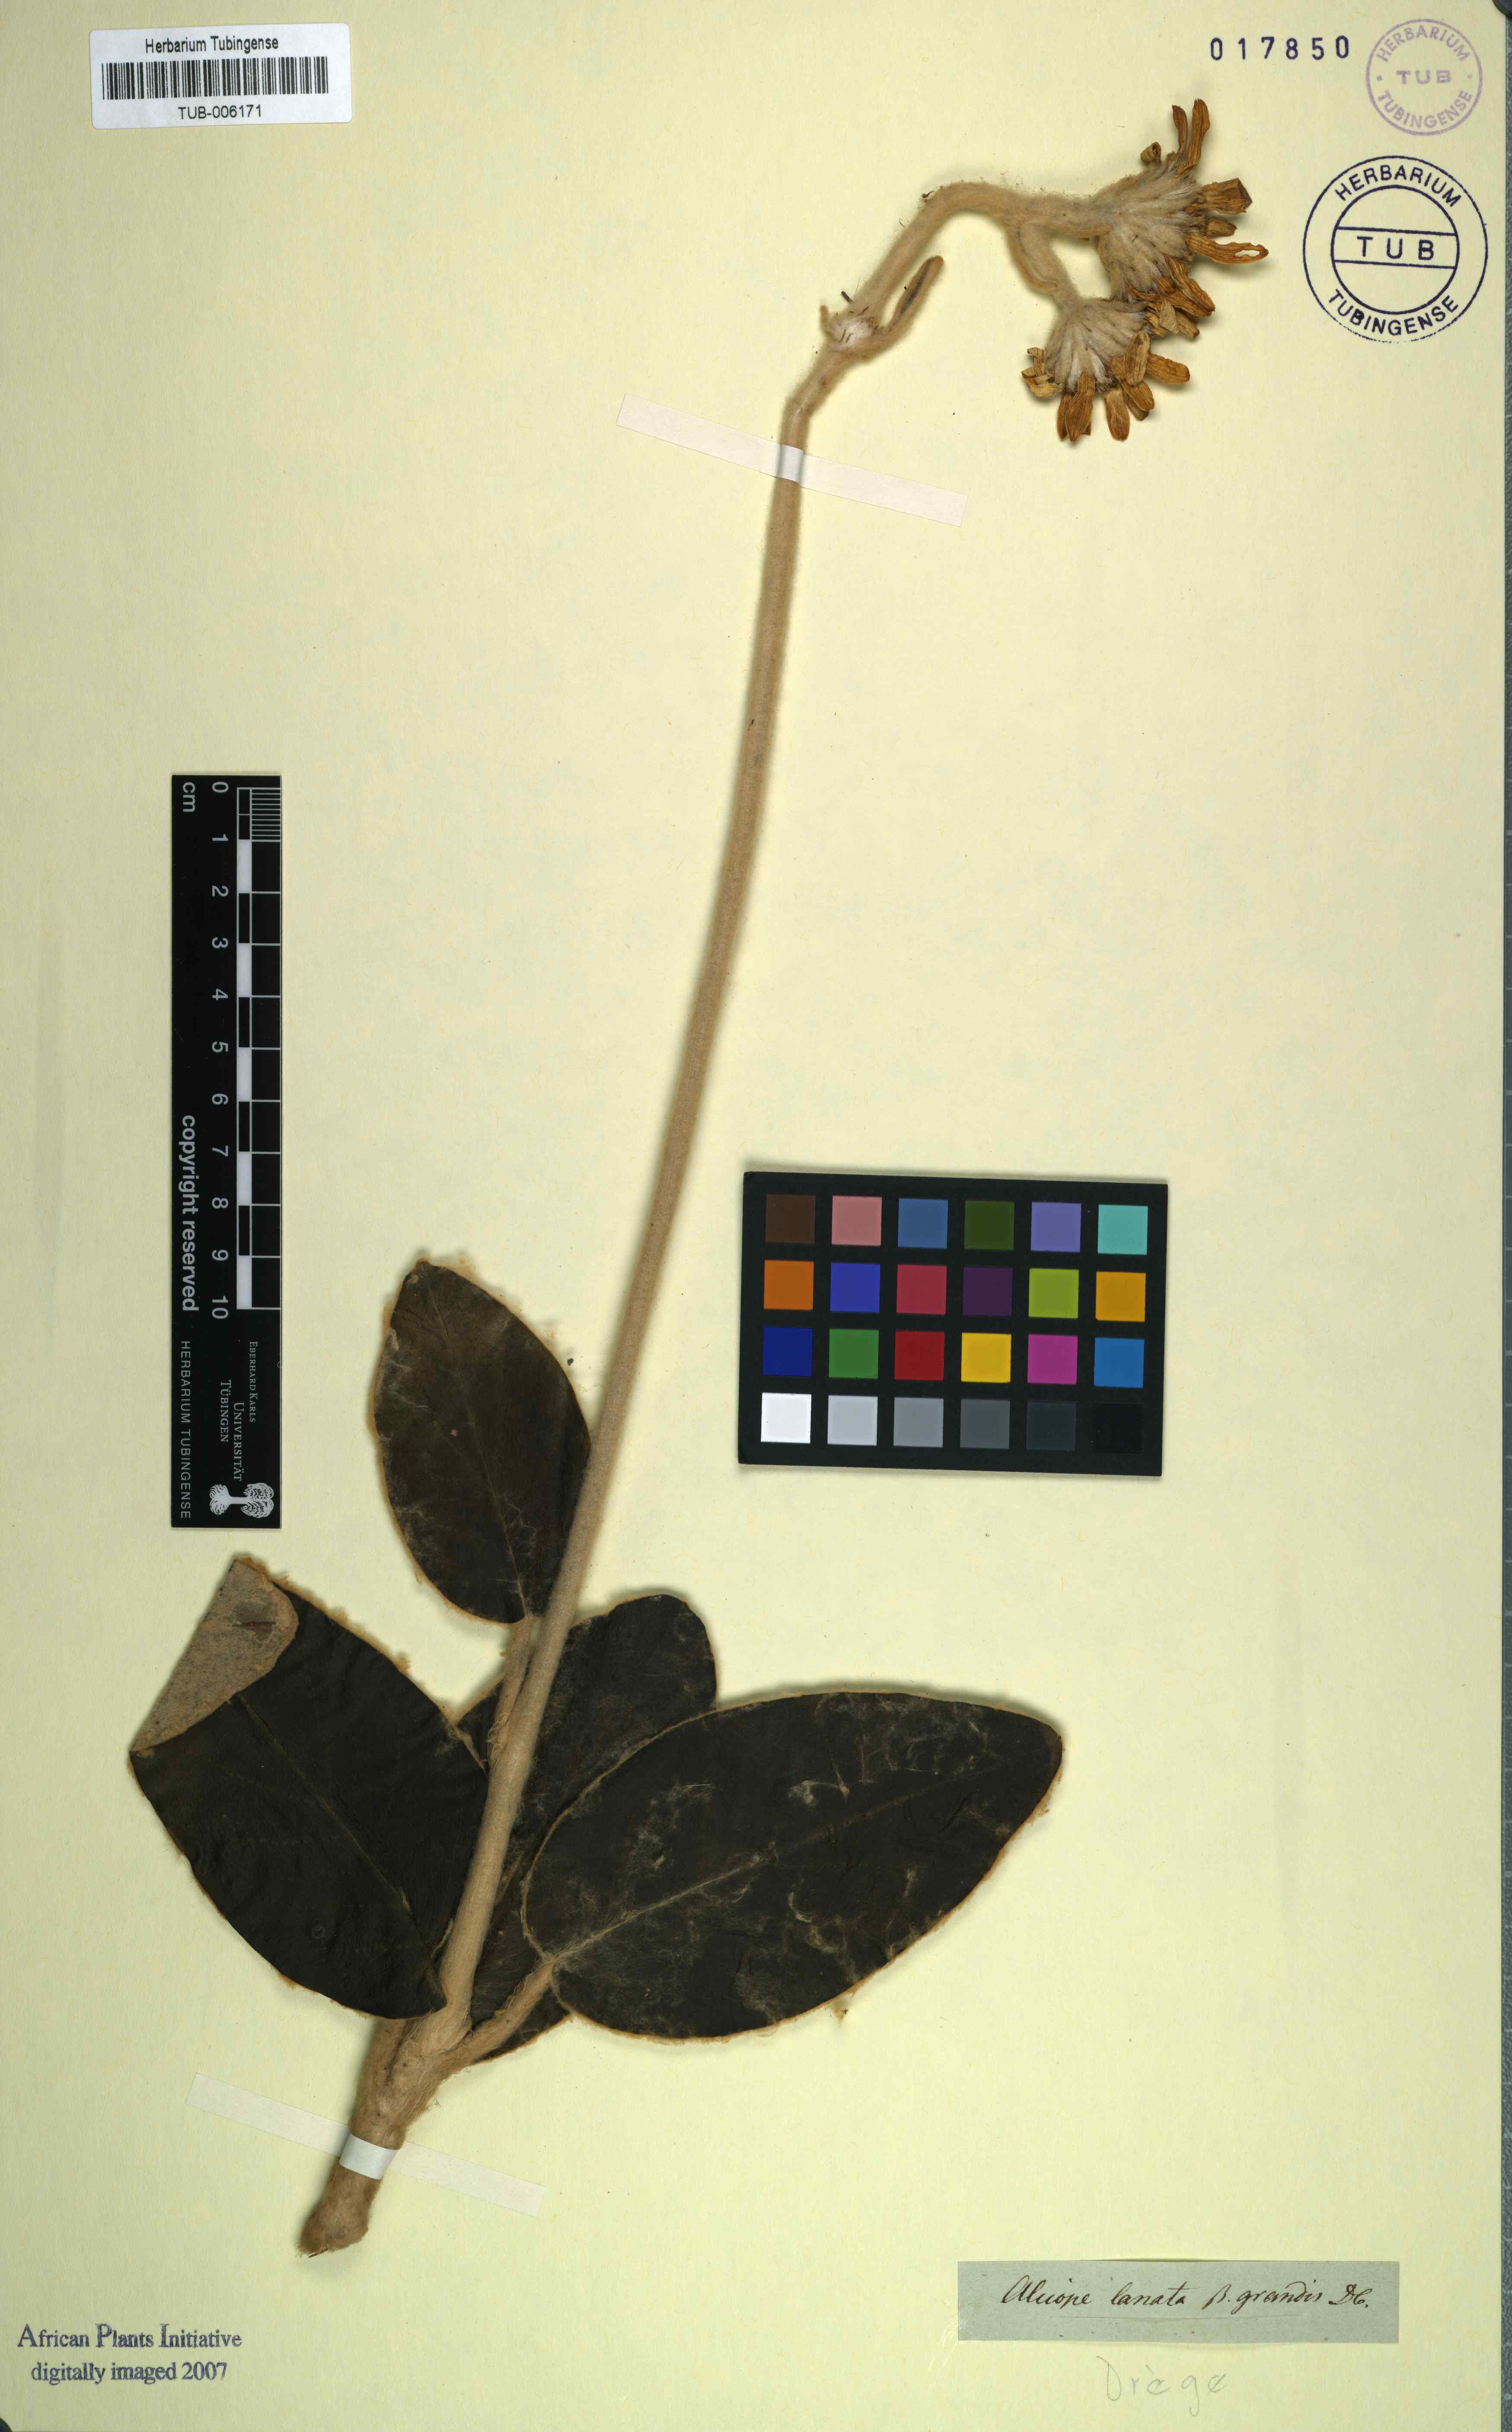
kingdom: Plantae
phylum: Tracheophyta
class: Magnoliopsida
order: Asterales
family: Asteraceae
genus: Capelio
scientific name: Capelio tomentosa
